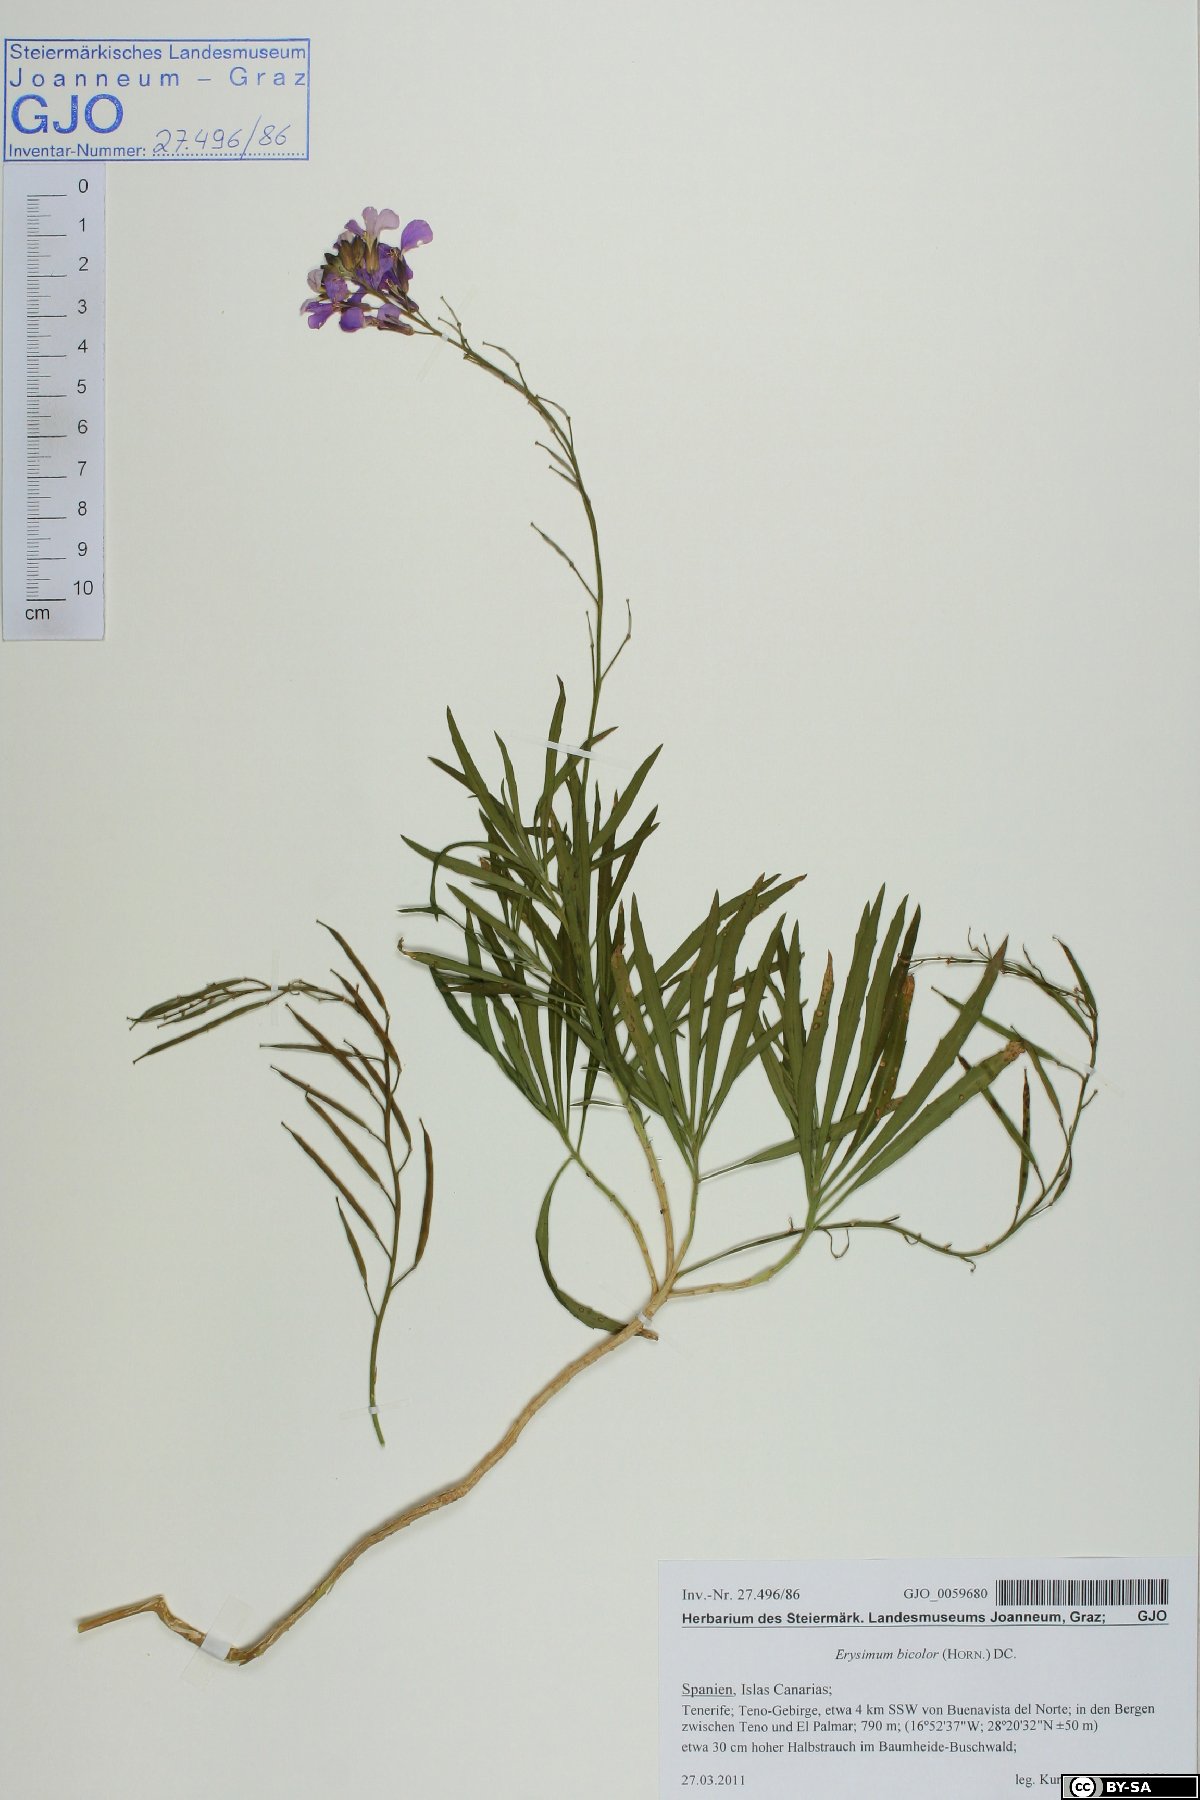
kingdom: Plantae
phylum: Tracheophyta
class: Magnoliopsida
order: Brassicales
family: Brassicaceae
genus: Erysimum
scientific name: Erysimum bicolor
